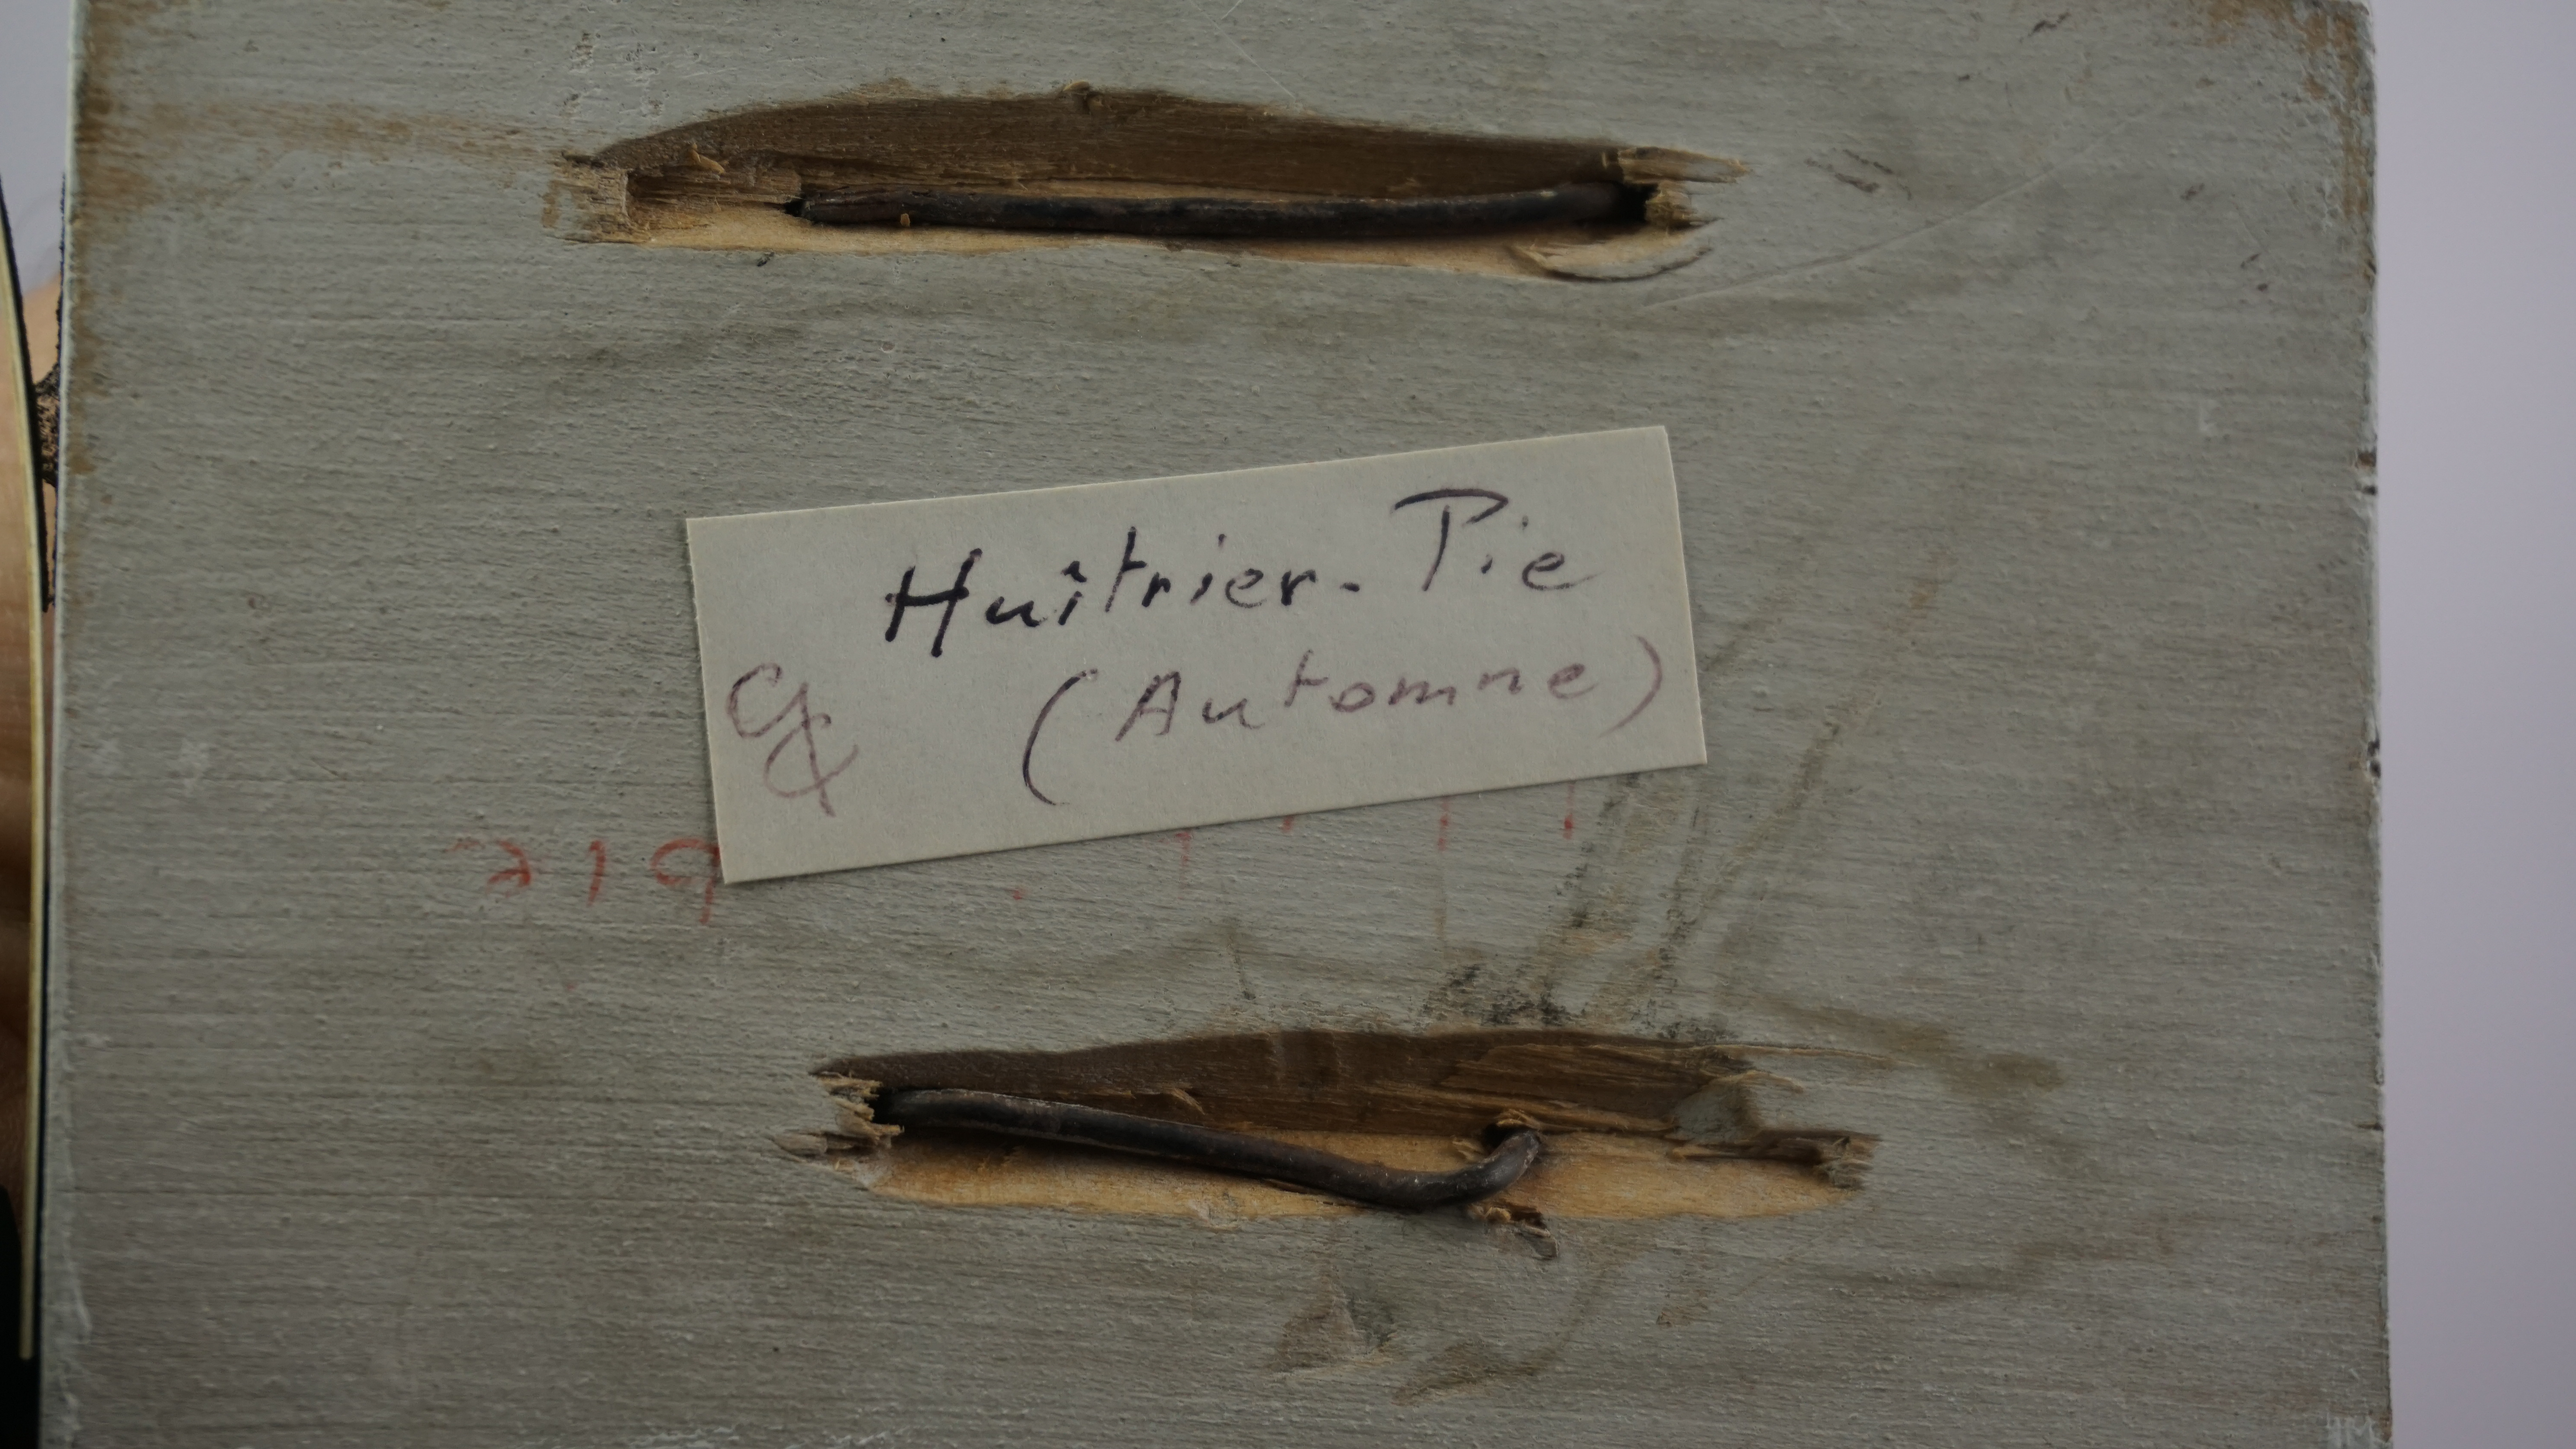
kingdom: Animalia
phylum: Chordata
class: Aves
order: Charadriiformes
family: Haematopodidae
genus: Haematopus
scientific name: Haematopus ostralegus
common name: Eurasian oystercatcher
